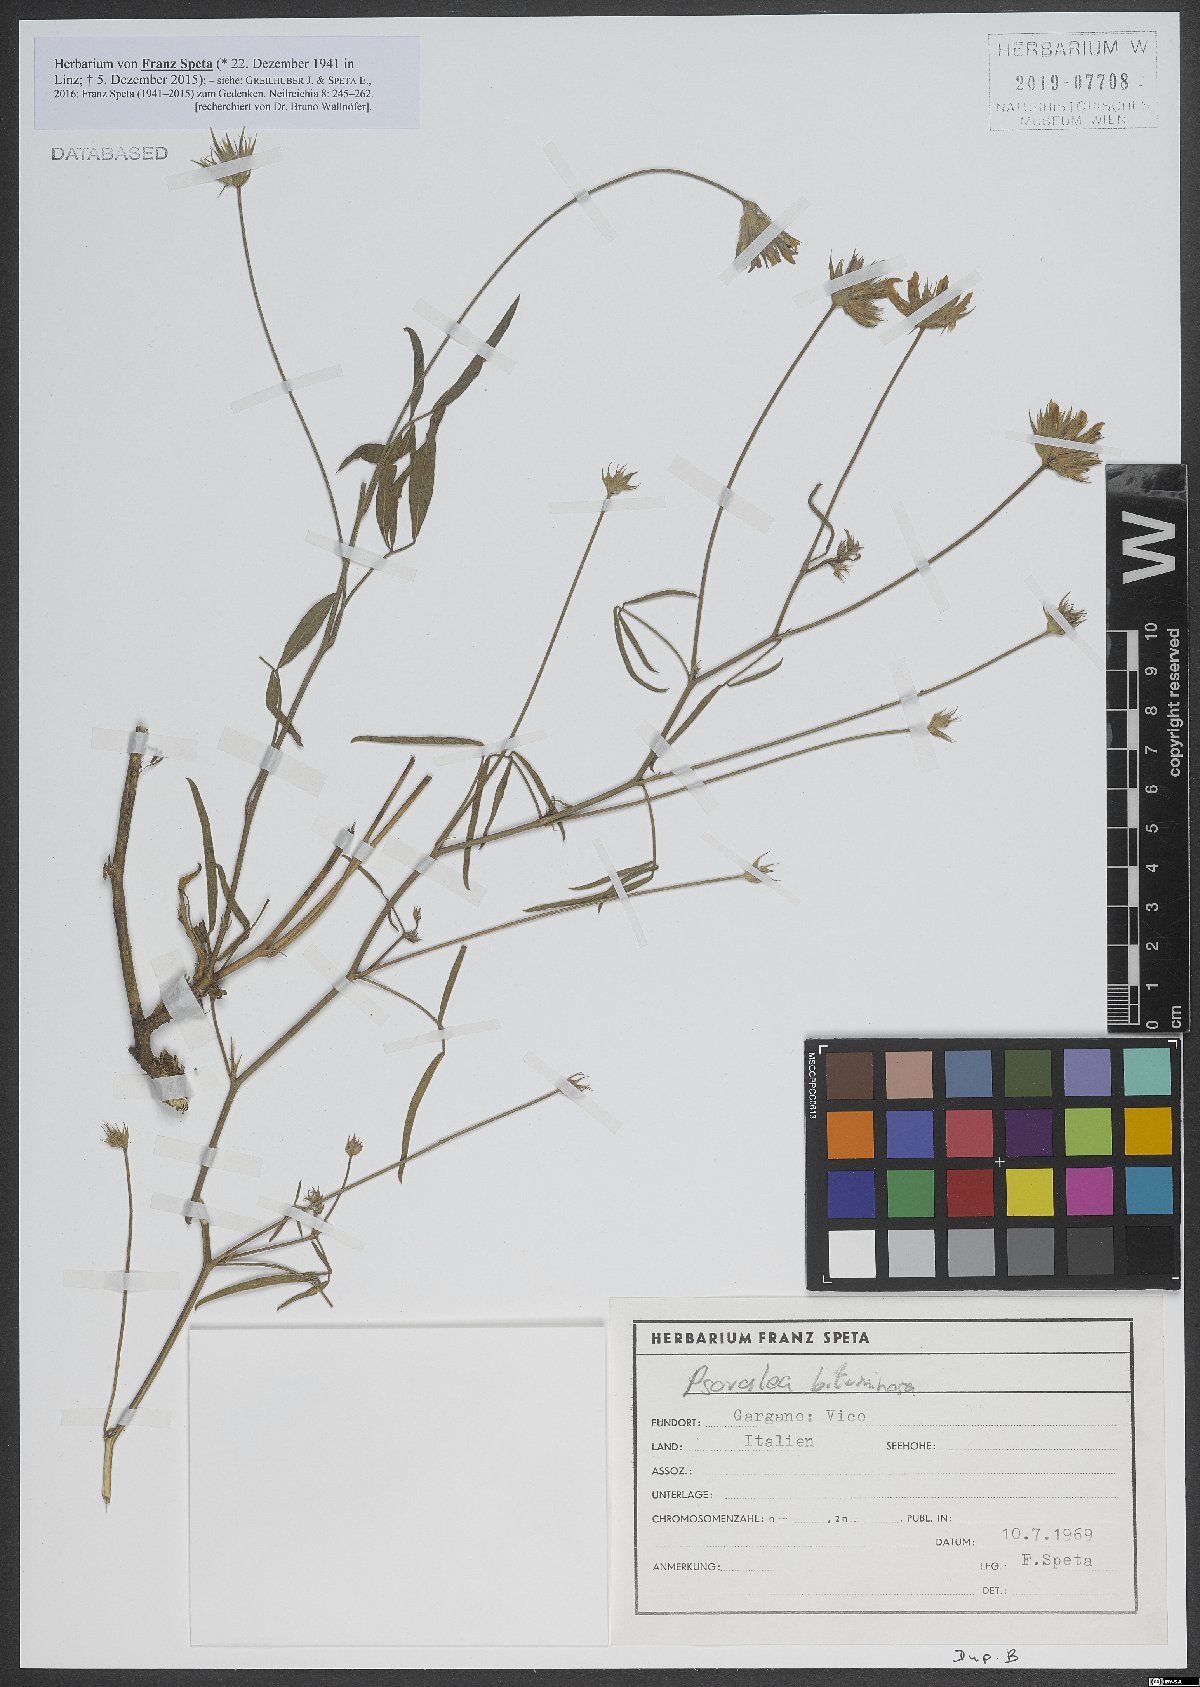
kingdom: Plantae
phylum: Tracheophyta
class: Magnoliopsida
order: Fabales
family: Fabaceae
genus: Bituminaria
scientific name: Bituminaria bituminosa
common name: Arabian pea
